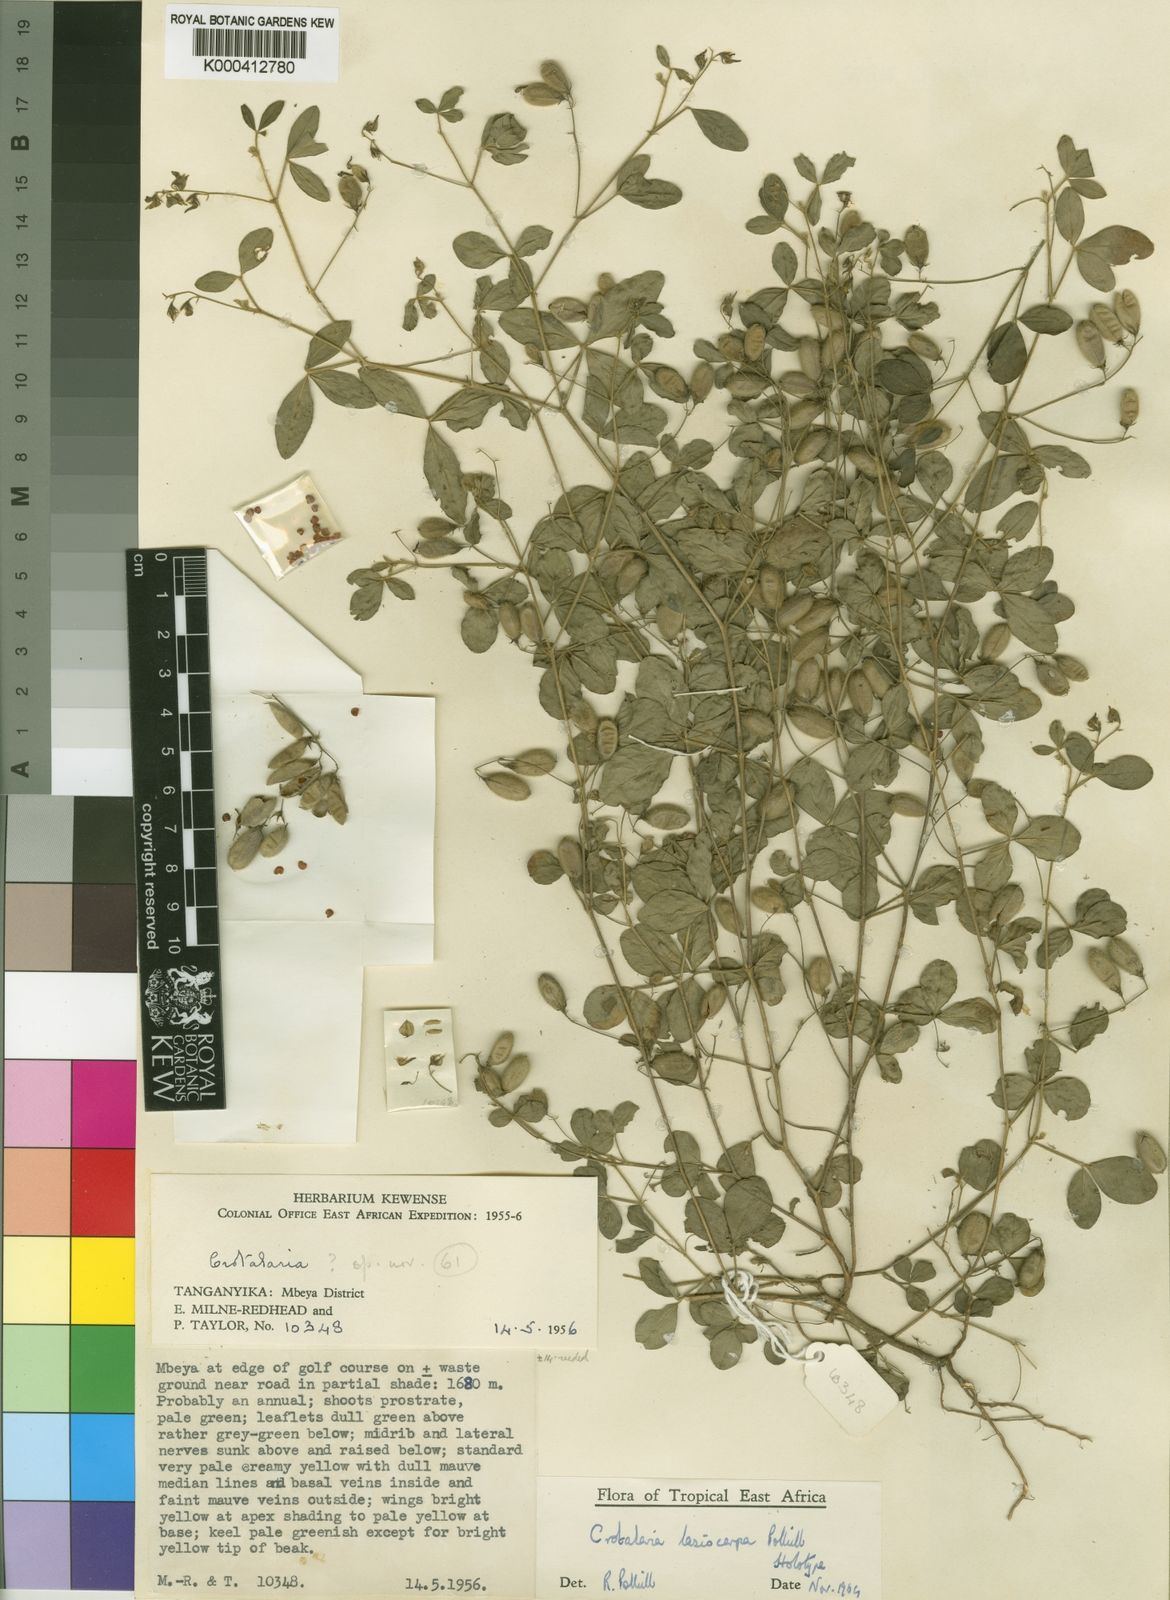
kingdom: Plantae
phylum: Tracheophyta
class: Magnoliopsida
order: Fabales
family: Fabaceae
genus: Crotalaria
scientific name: Crotalaria lasiocarpa
